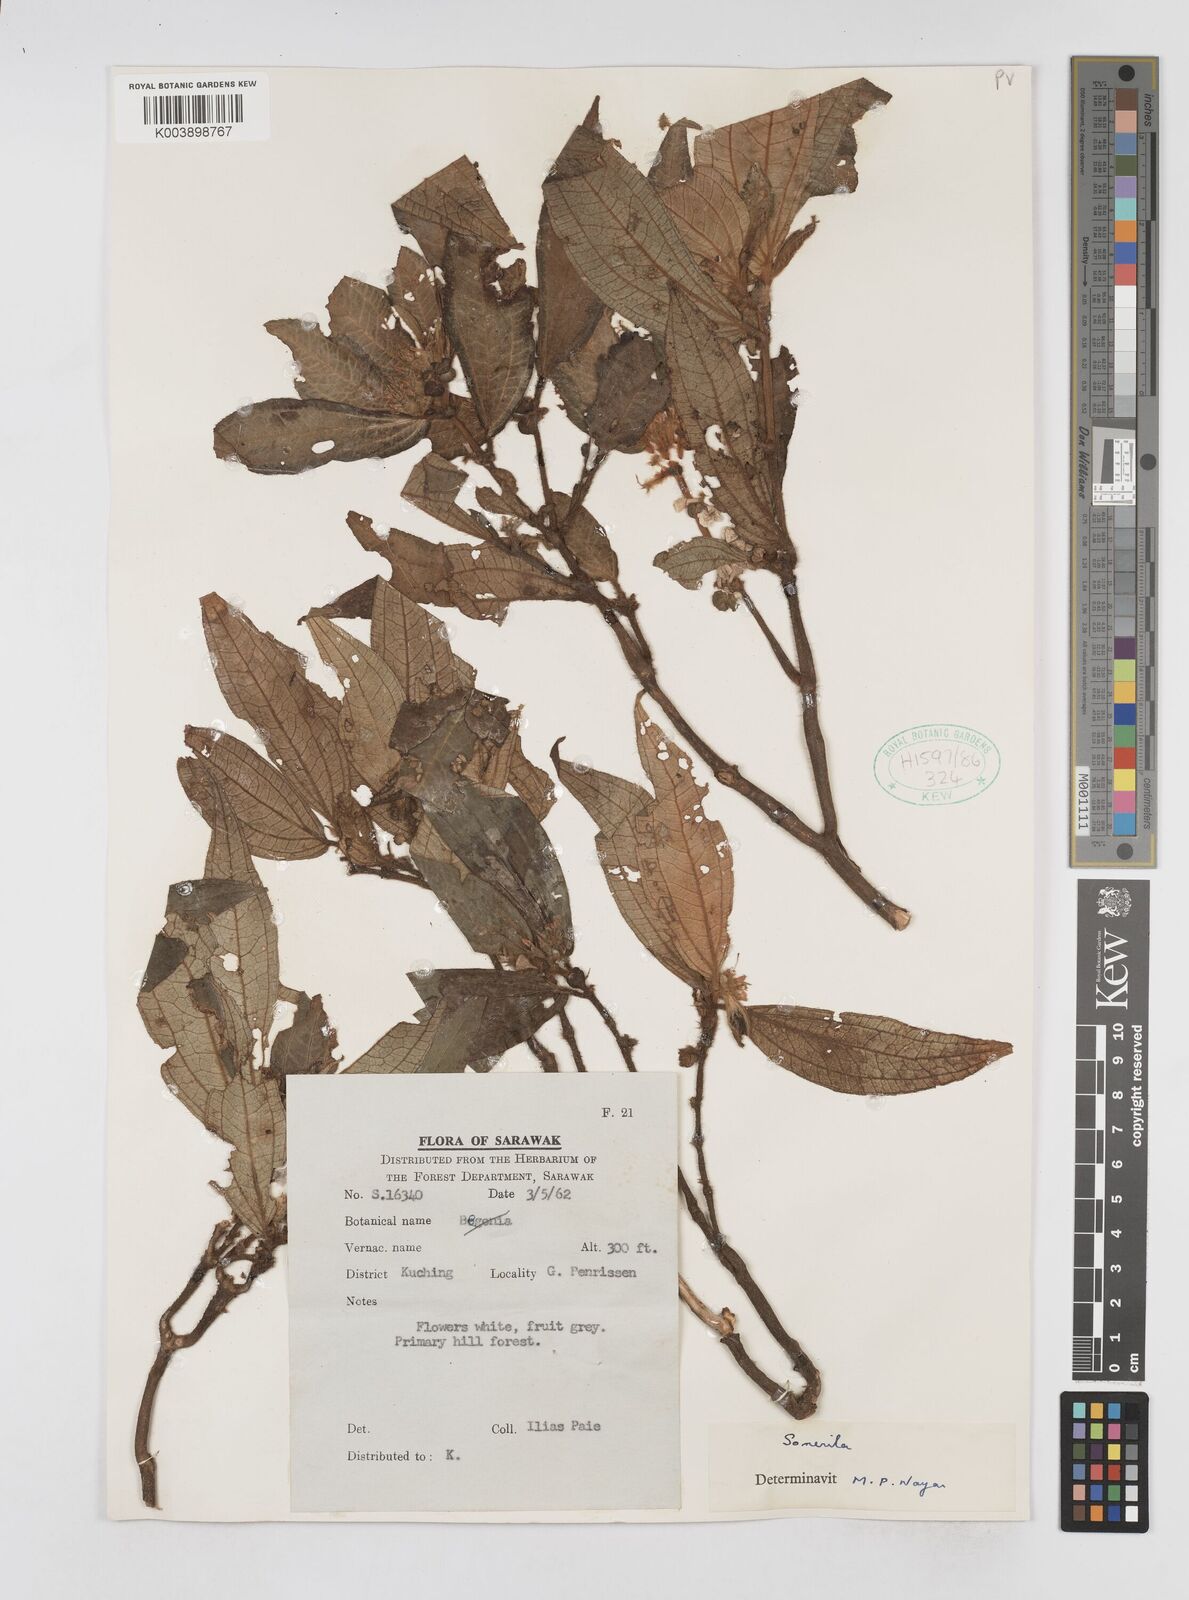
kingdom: Plantae
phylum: Tracheophyta
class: Magnoliopsida
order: Myrtales
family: Melastomataceae
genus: Sonerila
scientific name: Sonerila
